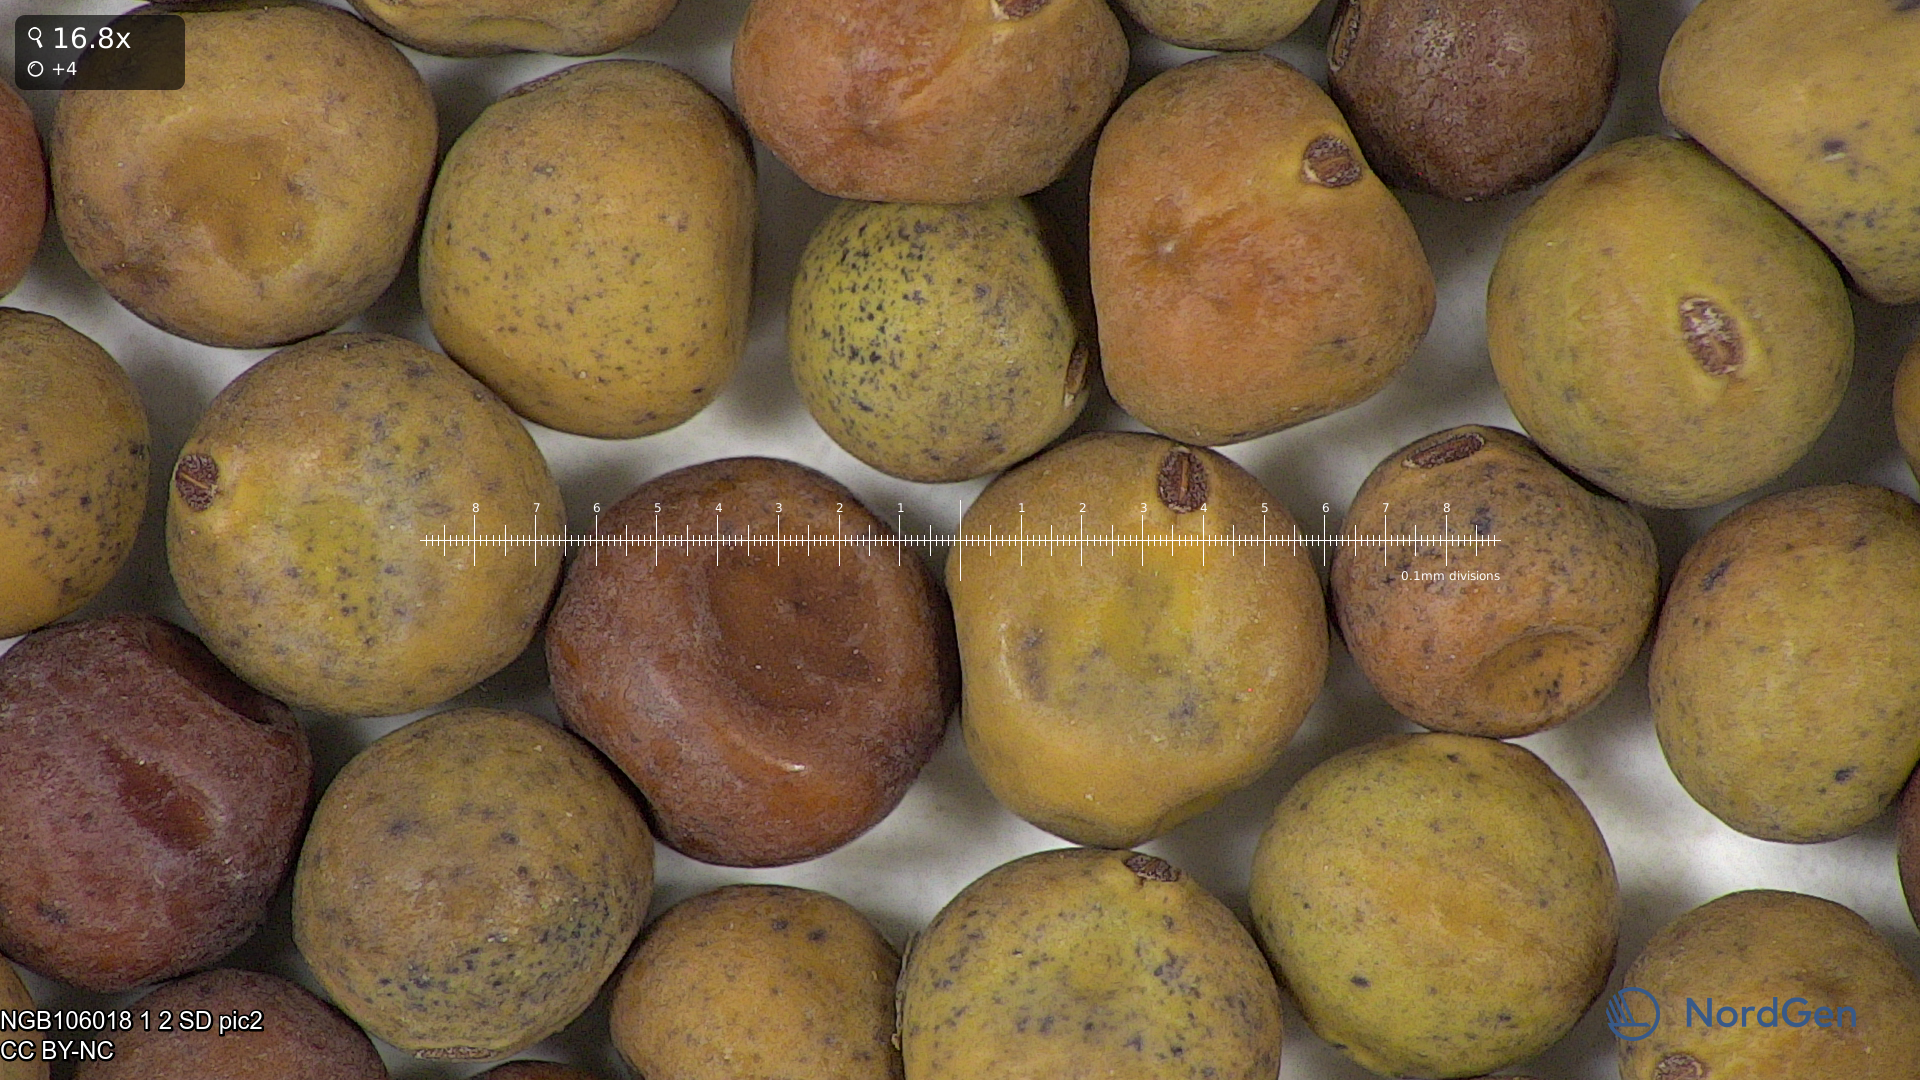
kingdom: Plantae
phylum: Tracheophyta
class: Magnoliopsida
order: Fabales
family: Fabaceae
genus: Lathyrus
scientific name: Lathyrus oleraceus
